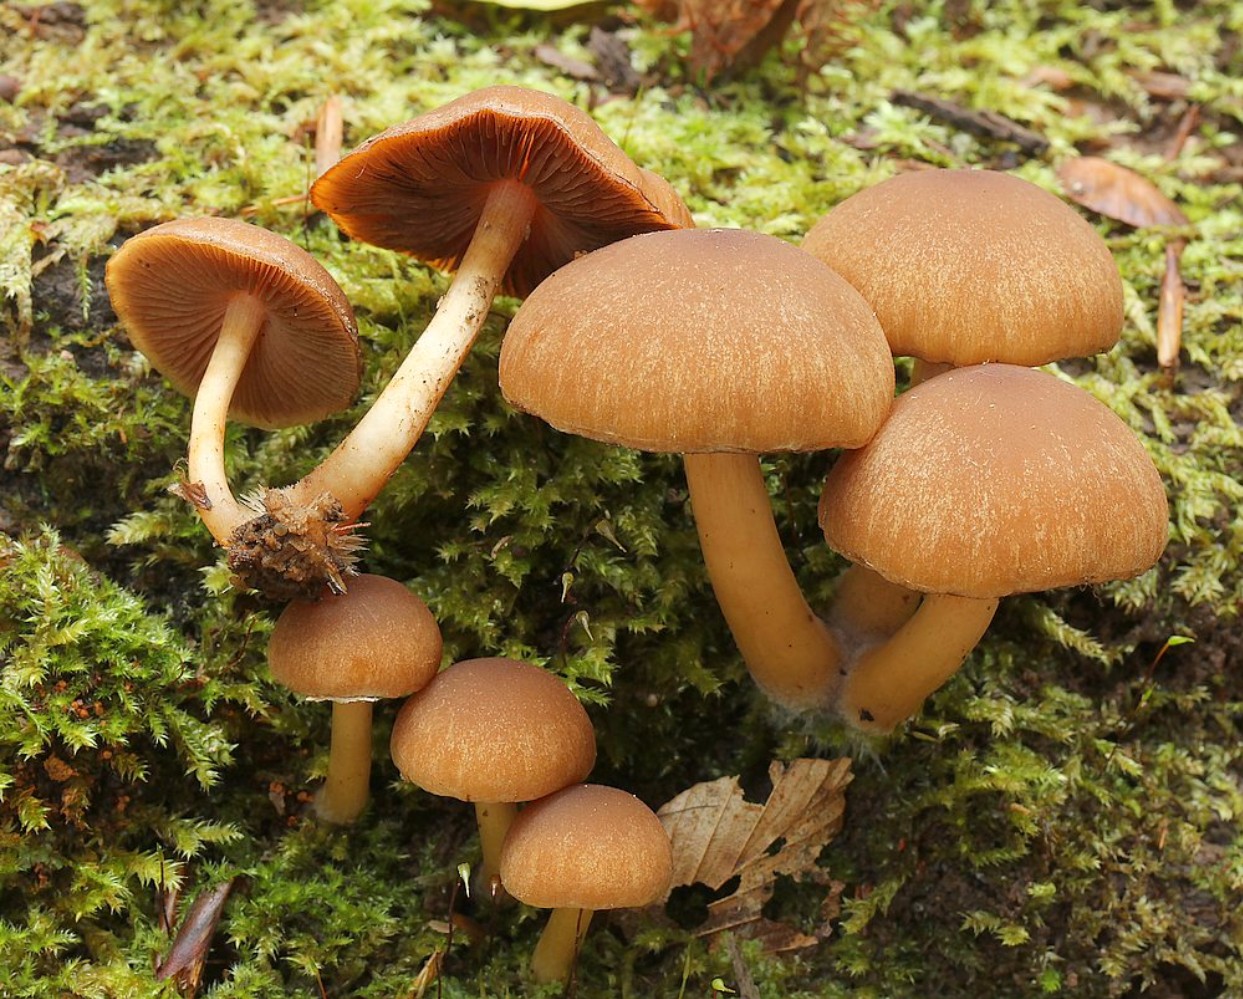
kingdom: Fungi
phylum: Basidiomycota
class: Agaricomycetes
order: Agaricales
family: Psathyrellaceae
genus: Psathyrella
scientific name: Psathyrella piluliformis
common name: lysstokket mørkhat
